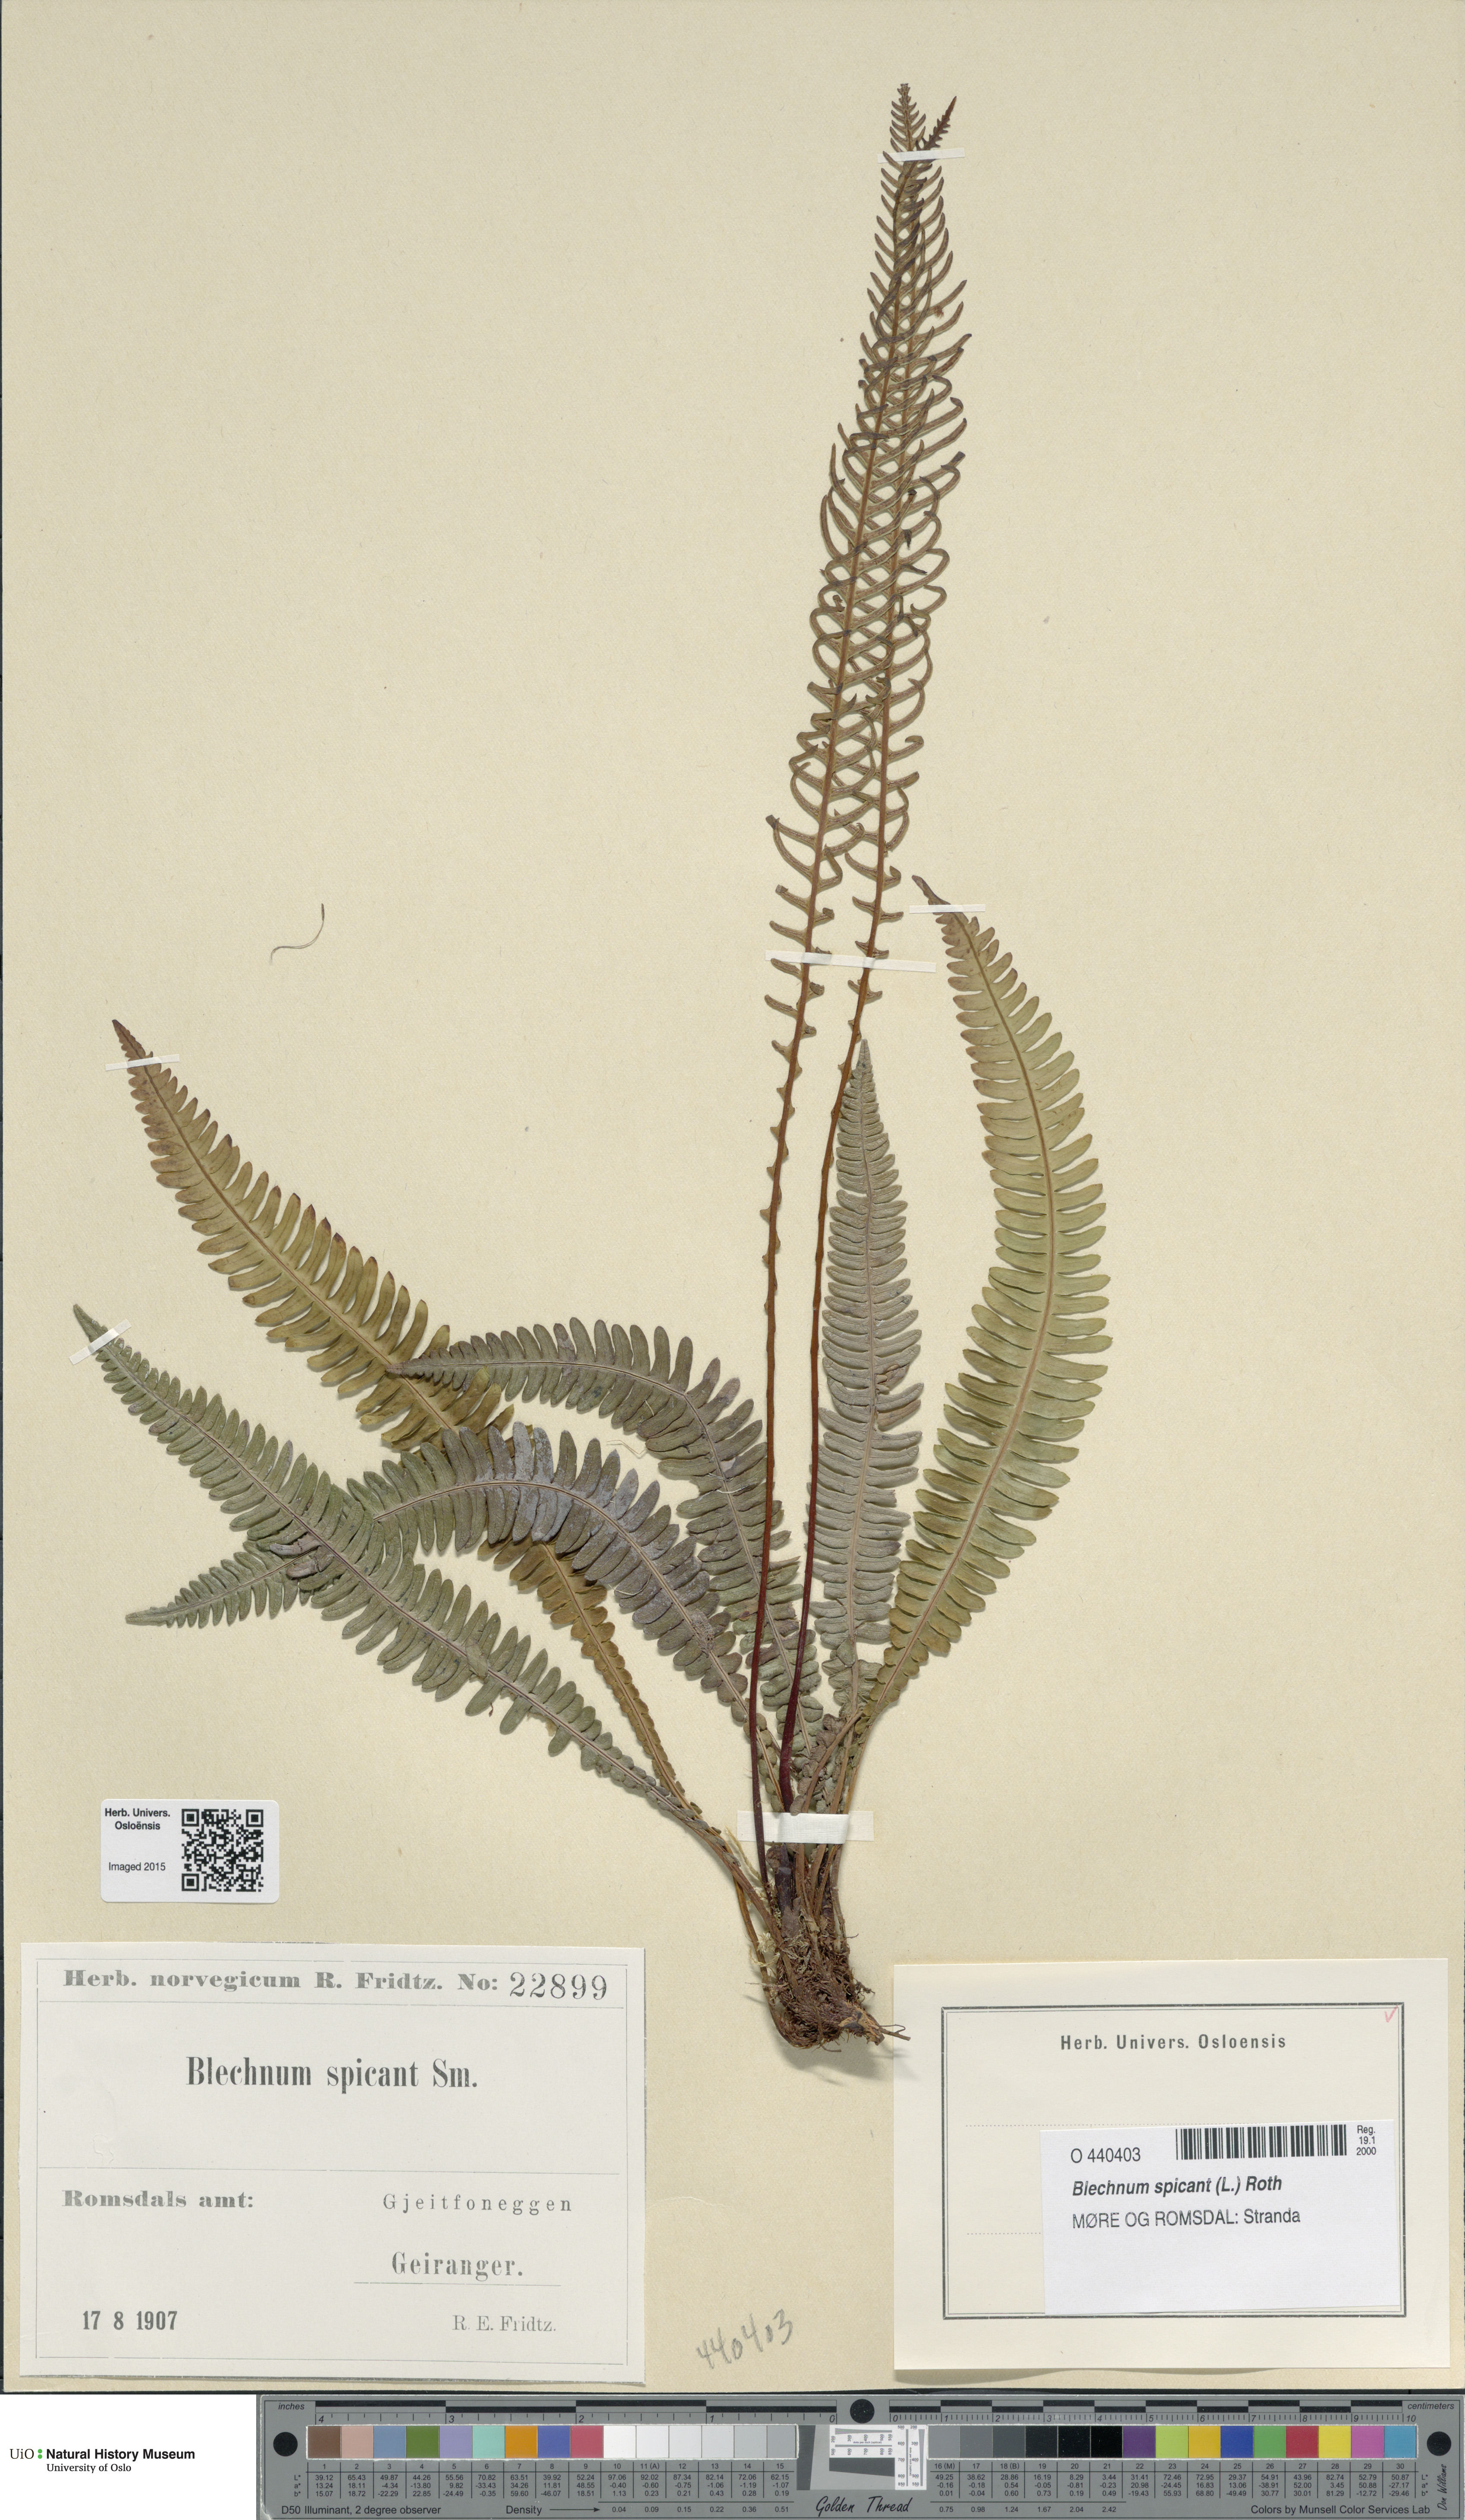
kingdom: Plantae
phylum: Tracheophyta
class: Polypodiopsida
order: Polypodiales
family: Blechnaceae
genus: Struthiopteris
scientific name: Struthiopteris spicant
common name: Deer fern
